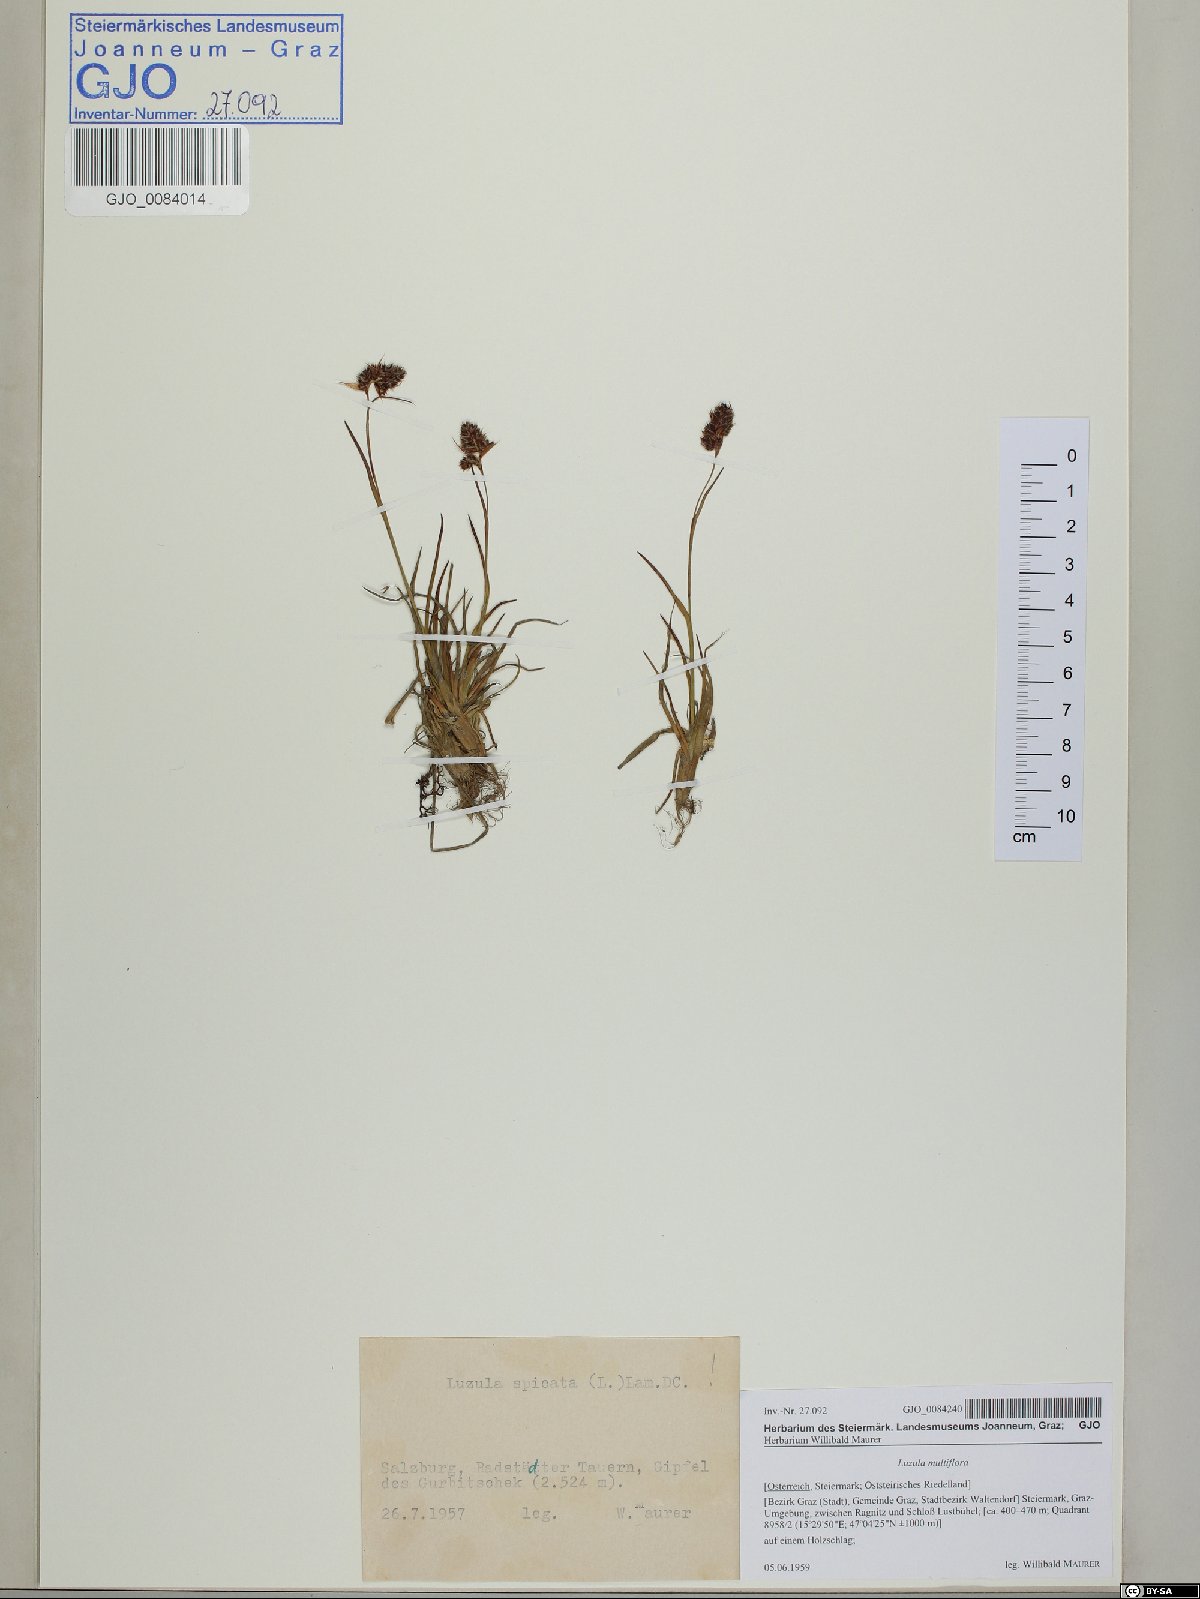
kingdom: Plantae
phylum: Tracheophyta
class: Liliopsida
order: Poales
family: Juncaceae
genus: Luzula
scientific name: Luzula spicata
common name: Spiked wood-rush
